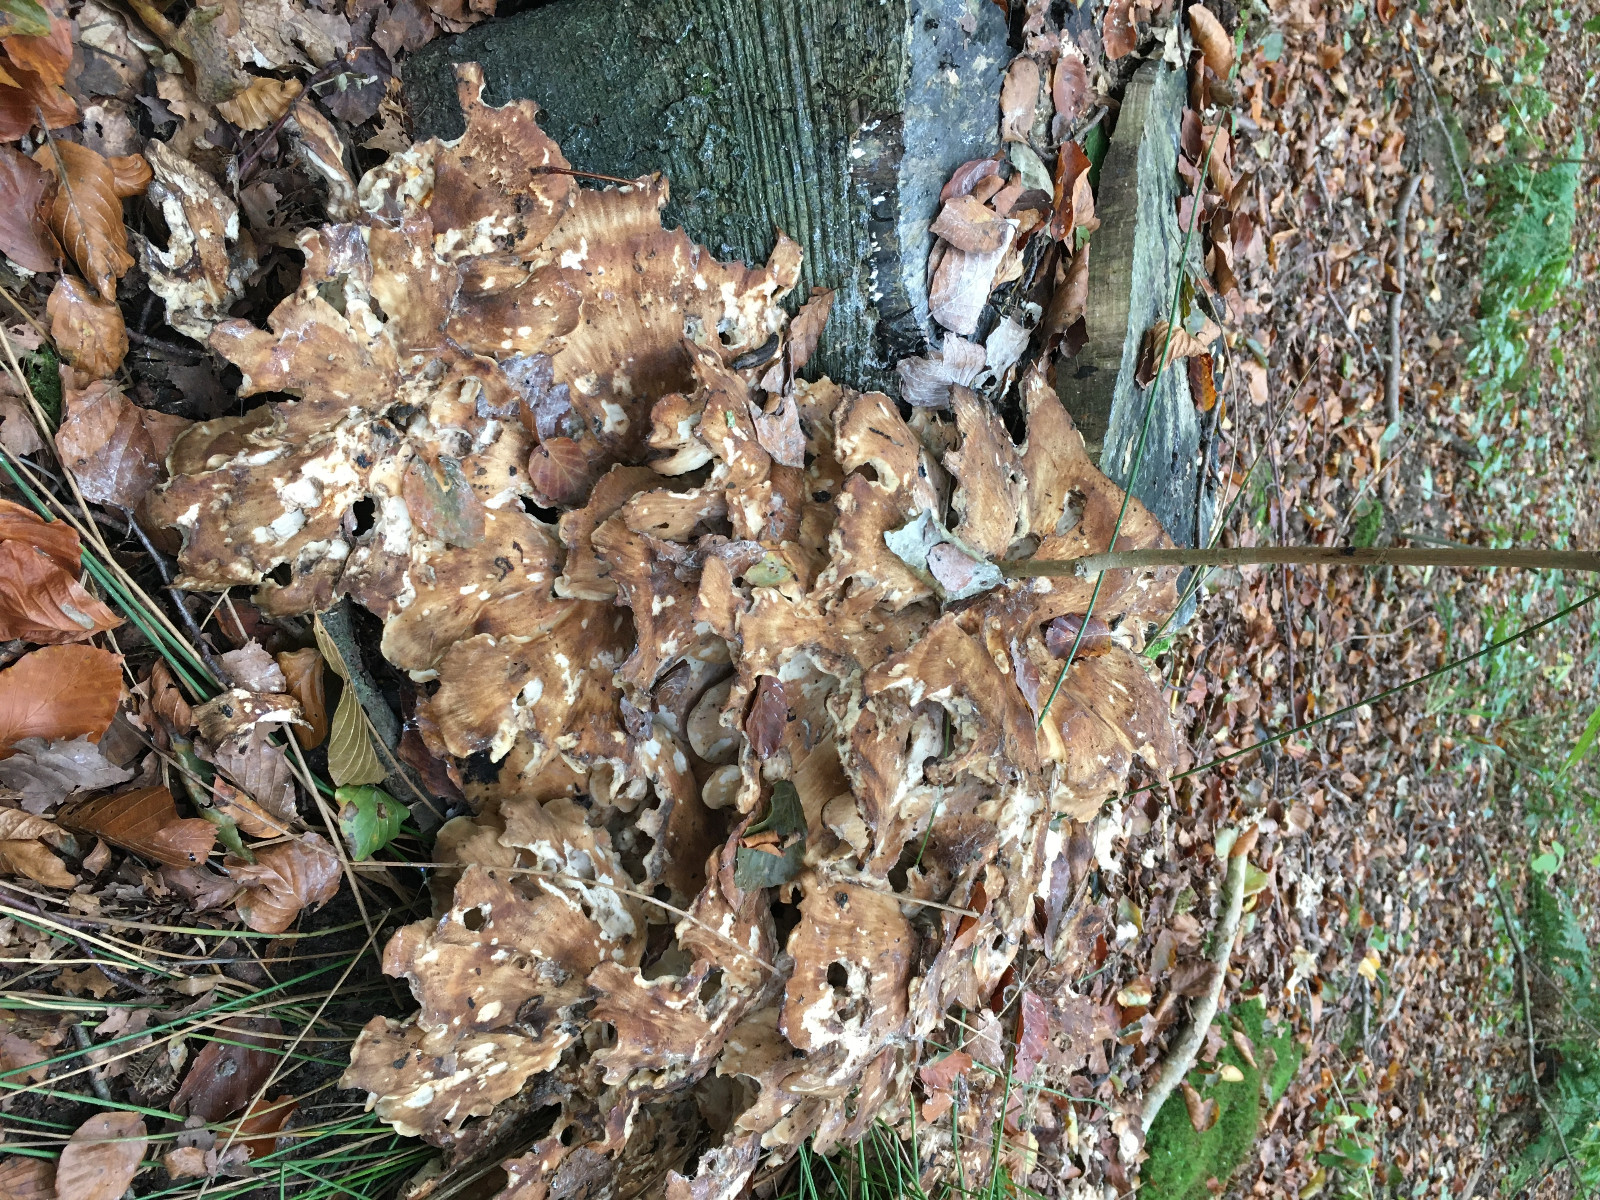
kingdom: Fungi
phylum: Basidiomycota
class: Agaricomycetes
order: Polyporales
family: Meripilaceae
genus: Meripilus
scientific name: Meripilus giganteus
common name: kæmpeporesvamp
